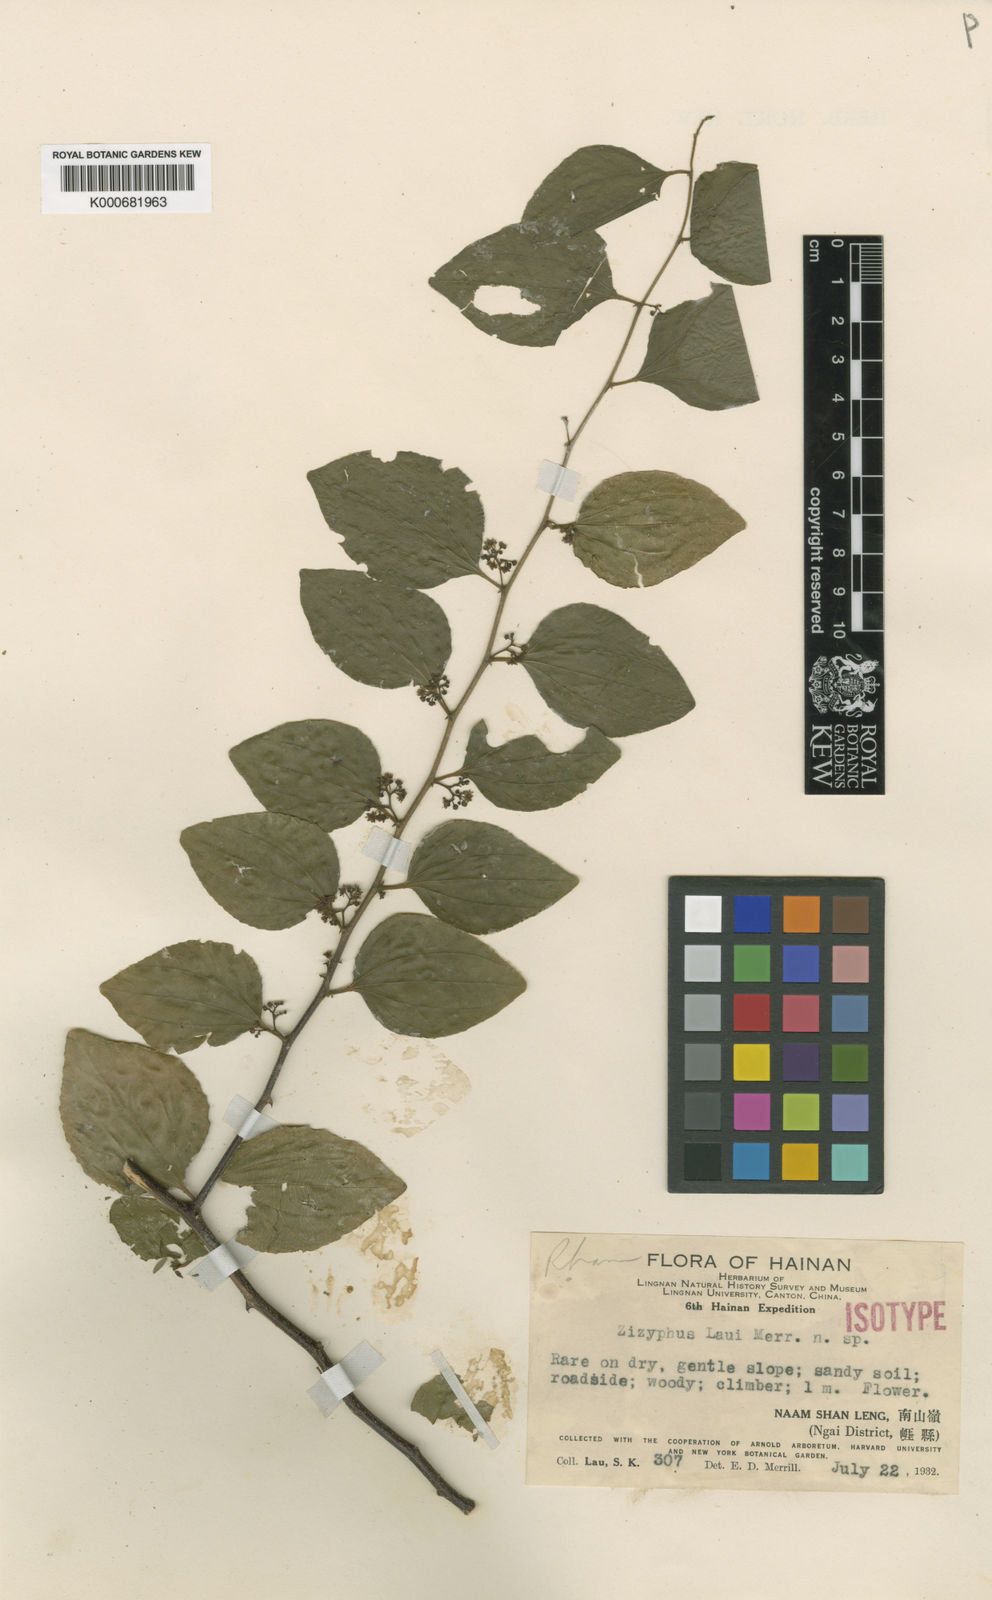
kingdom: Plantae
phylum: Tracheophyta
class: Magnoliopsida
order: Rosales
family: Rhamnaceae
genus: Ziziphus
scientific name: Ziziphus laui
